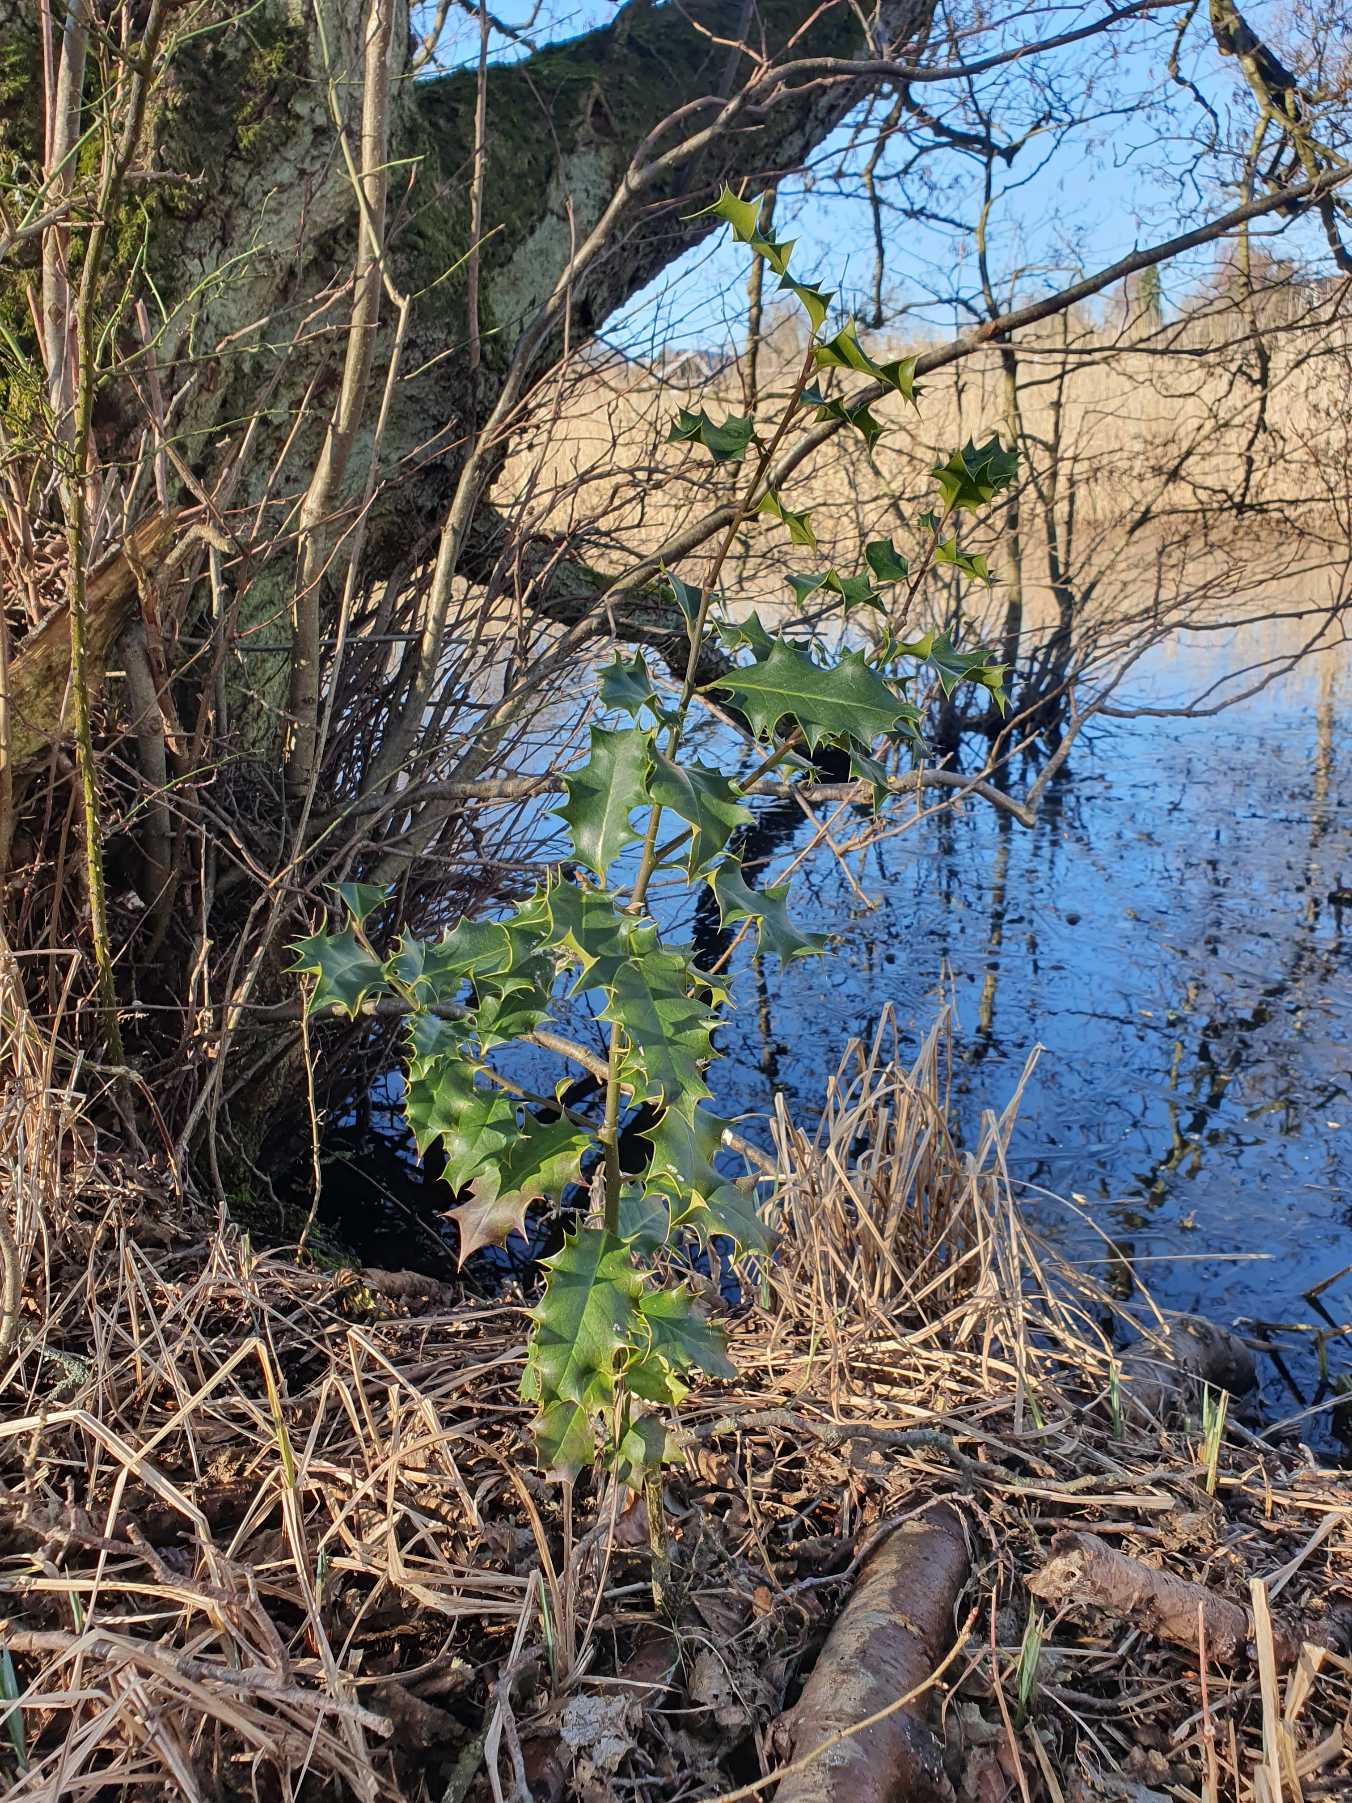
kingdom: Plantae
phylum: Tracheophyta
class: Magnoliopsida
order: Aquifoliales
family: Aquifoliaceae
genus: Ilex
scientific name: Ilex aquifolium
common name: Kristtorn
